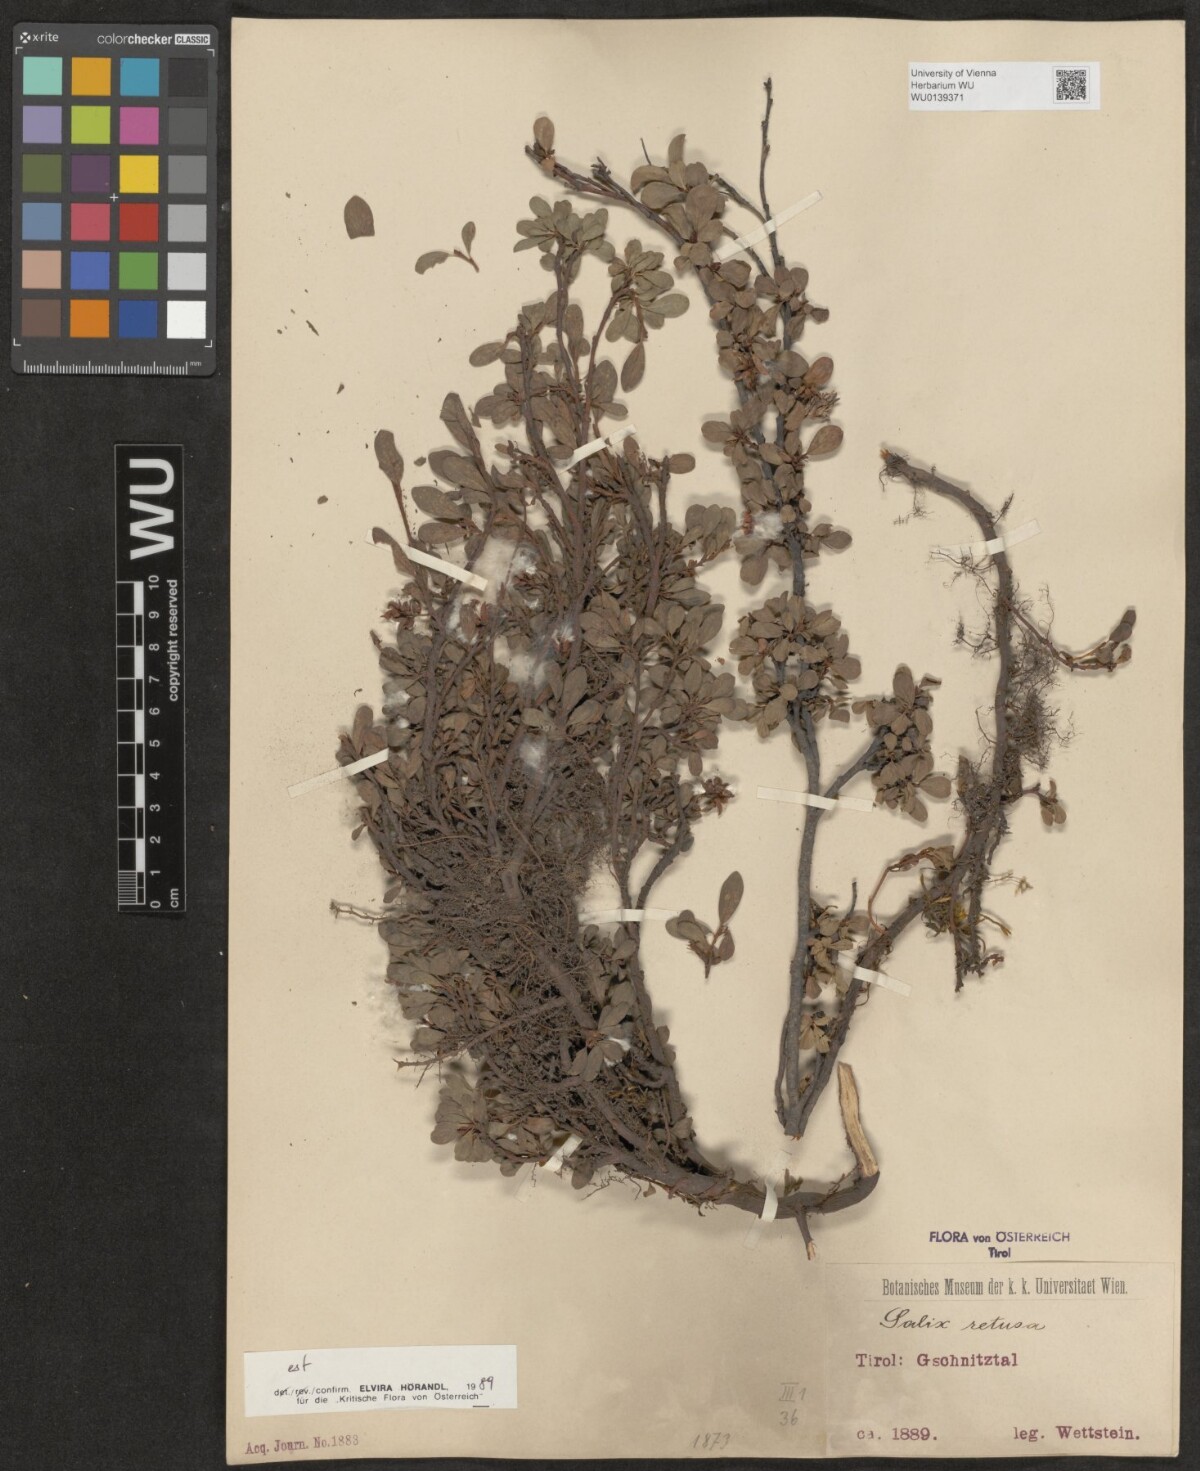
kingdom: Plantae
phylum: Tracheophyta
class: Magnoliopsida
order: Malpighiales
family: Salicaceae
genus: Salix
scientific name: Salix retusa
